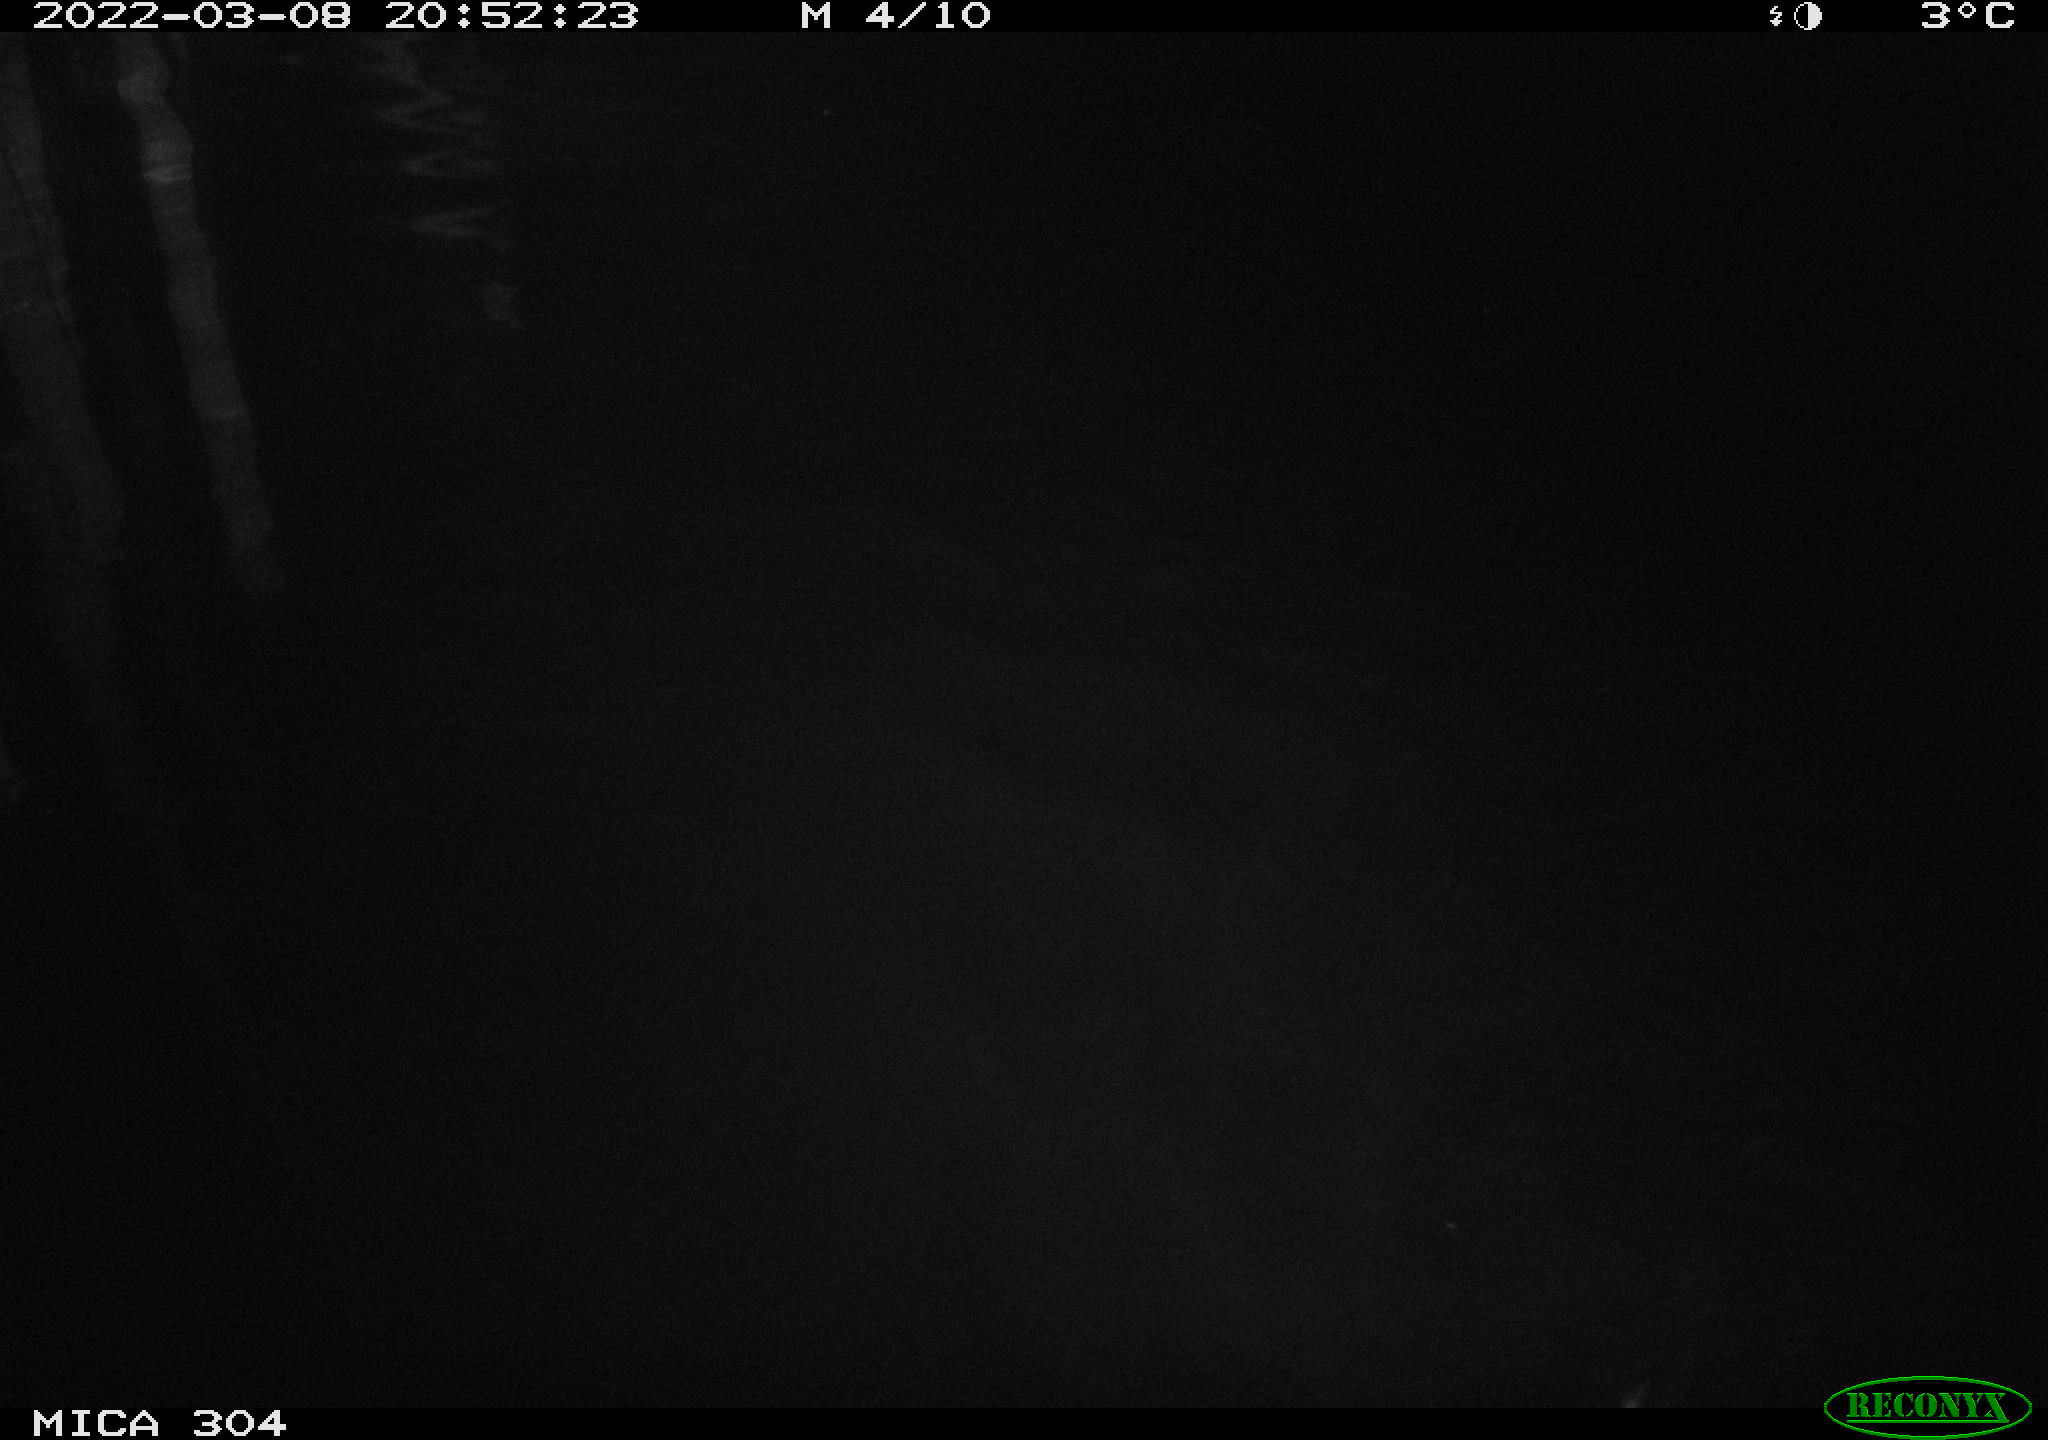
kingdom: Animalia
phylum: Chordata
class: Mammalia
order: Rodentia
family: Cricetidae
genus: Ondatra
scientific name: Ondatra zibethicus
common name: Muskrat
